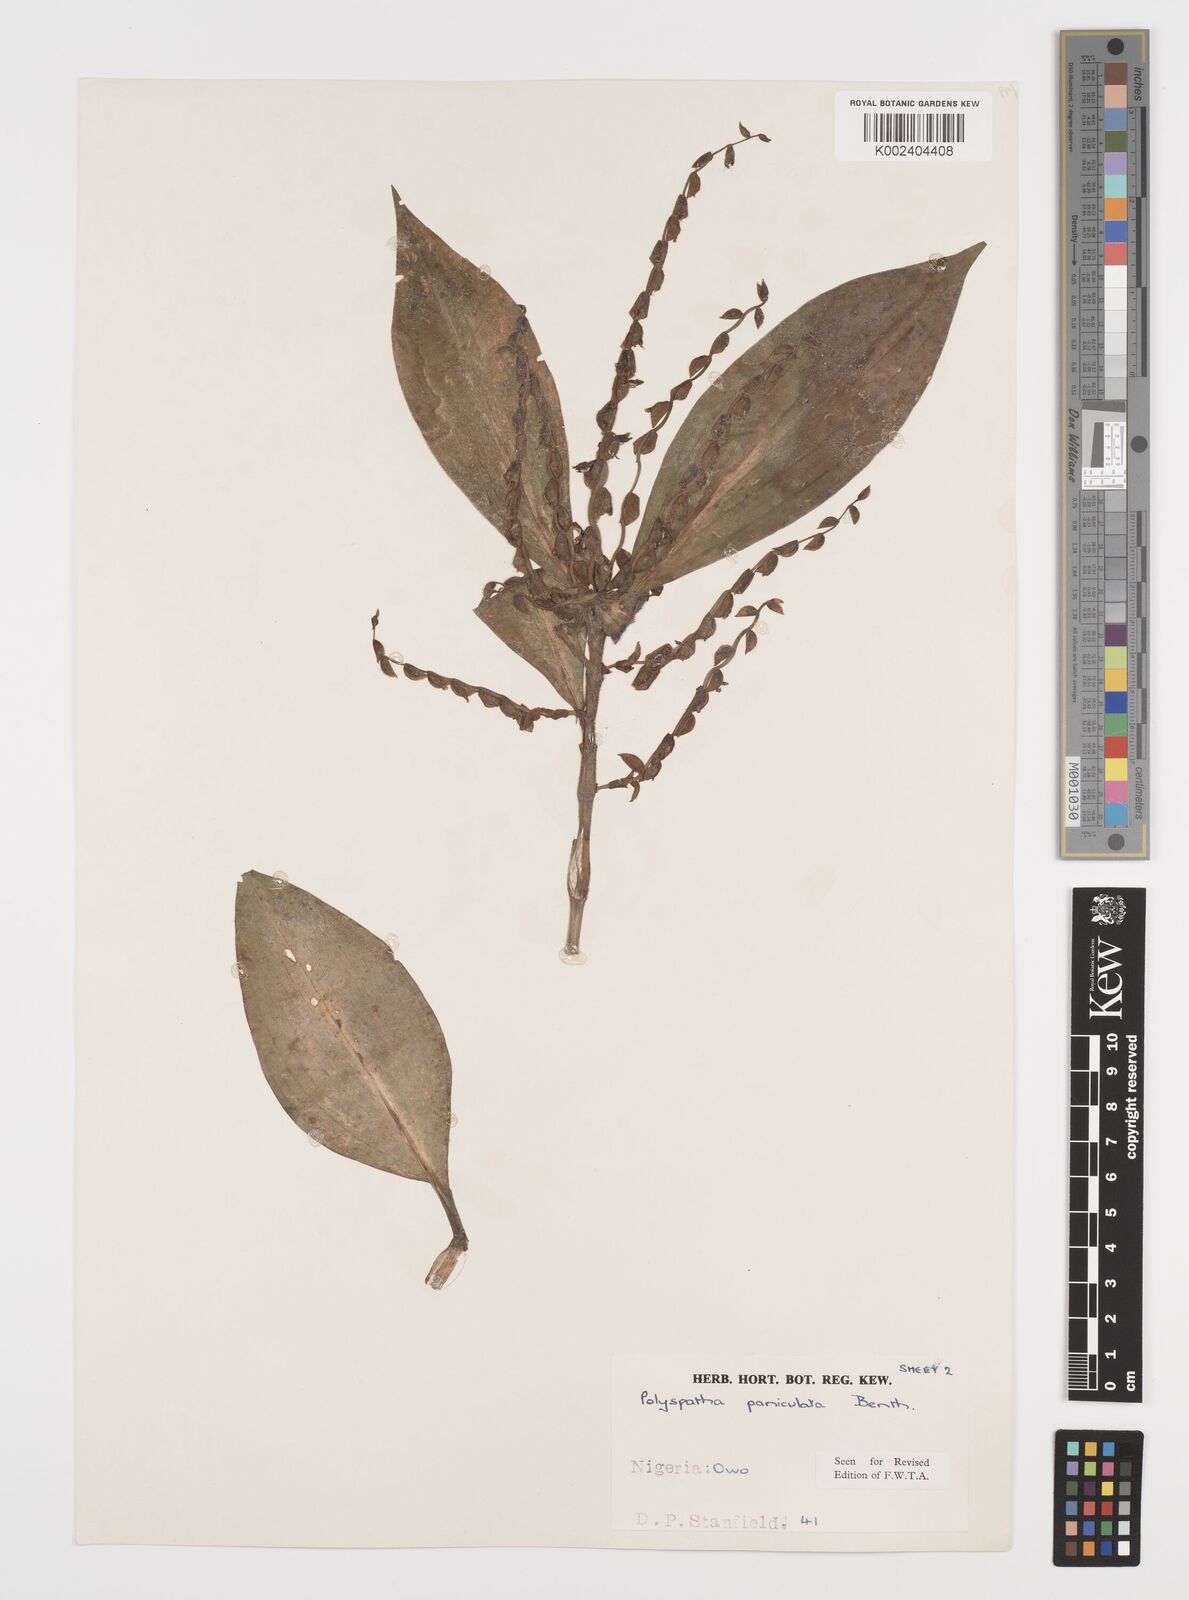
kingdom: Plantae
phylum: Tracheophyta
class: Liliopsida
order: Commelinales
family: Commelinaceae
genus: Polyspatha
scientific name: Polyspatha paniculata
